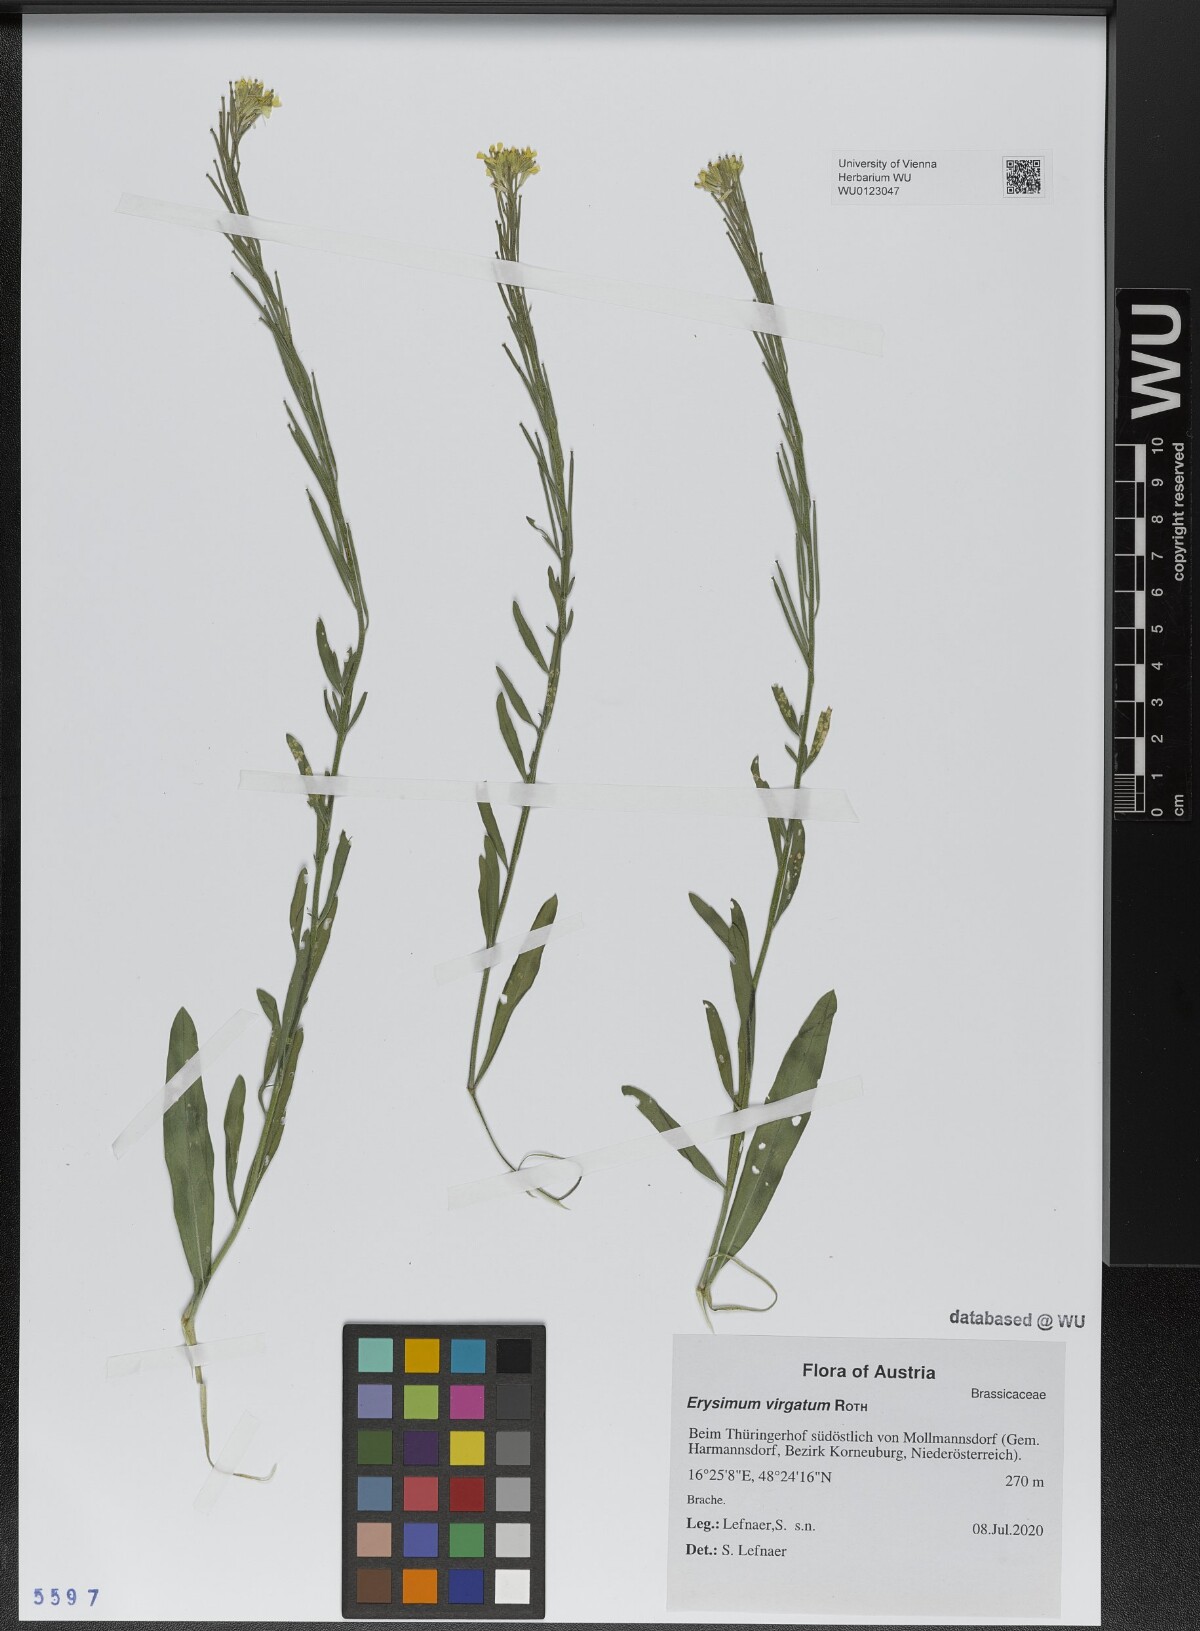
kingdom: Plantae
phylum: Tracheophyta
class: Magnoliopsida
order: Brassicales
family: Brassicaceae
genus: Erysimum
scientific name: Erysimum virgatum
